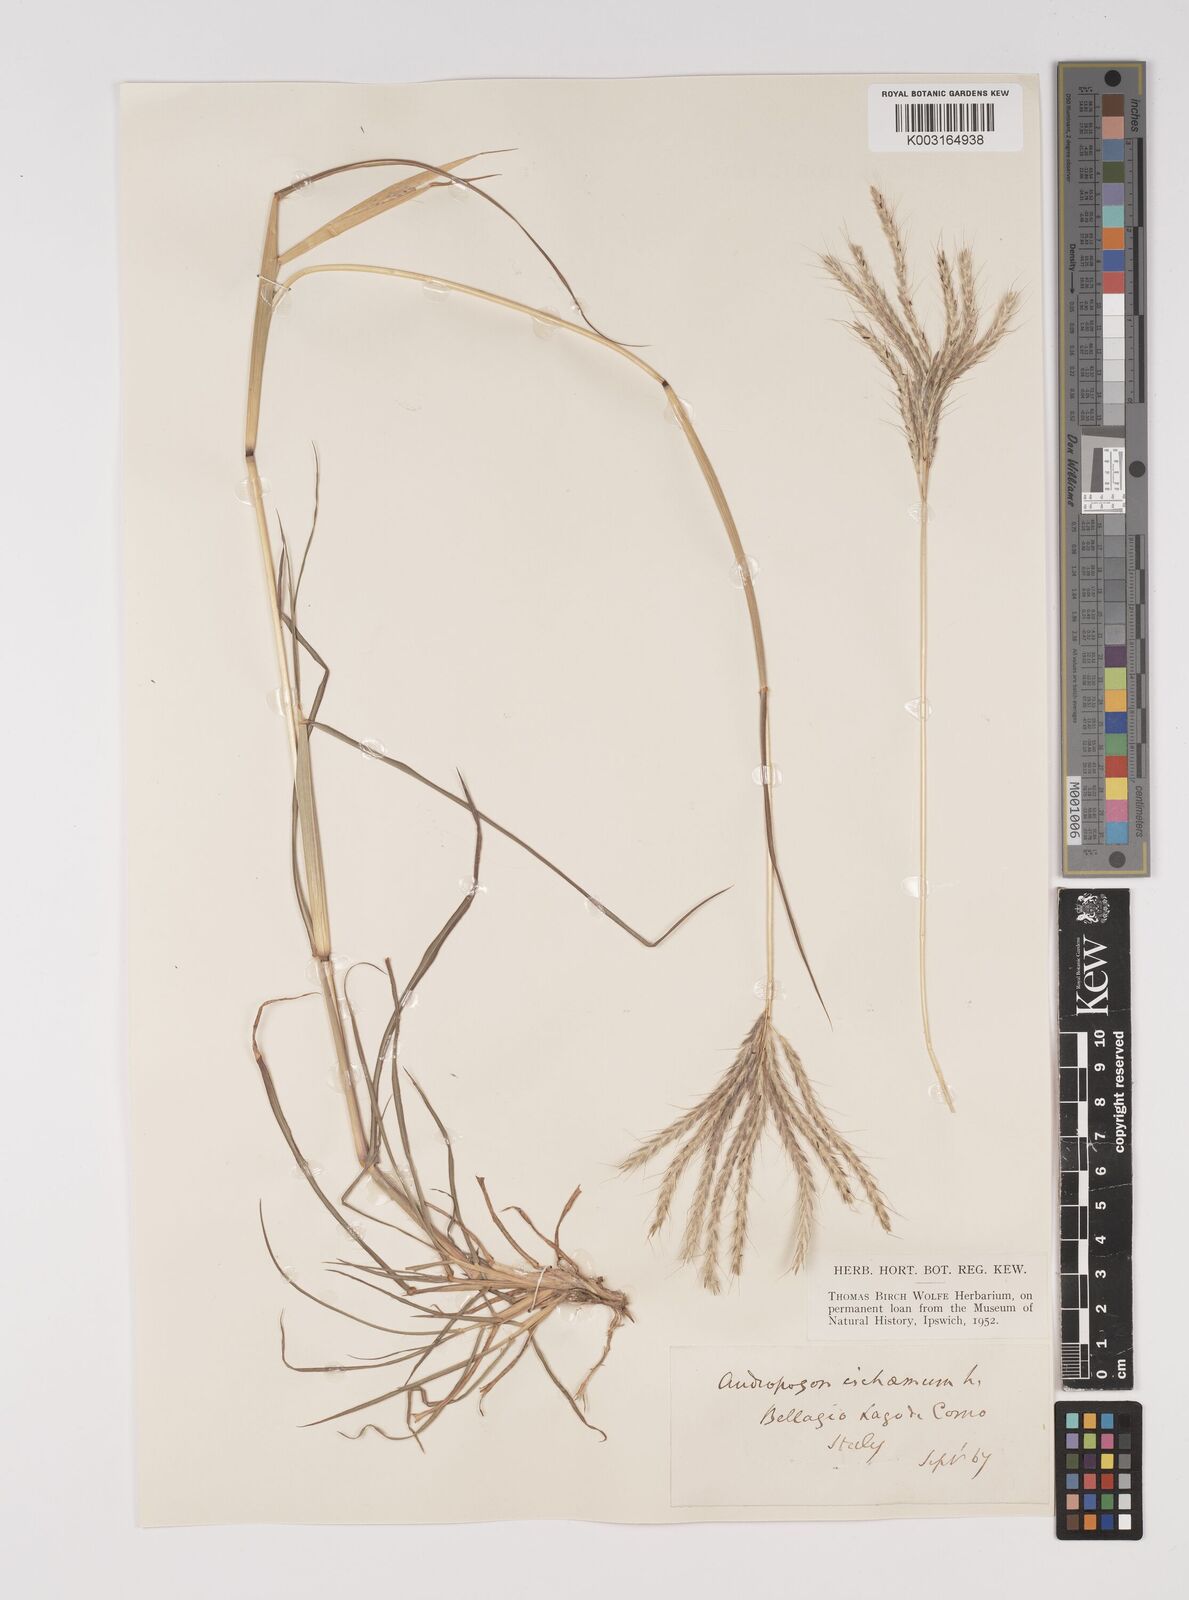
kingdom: Plantae
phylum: Tracheophyta
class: Liliopsida
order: Poales
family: Poaceae
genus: Bothriochloa
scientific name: Bothriochloa ischaemum
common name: Yellow bluestem
